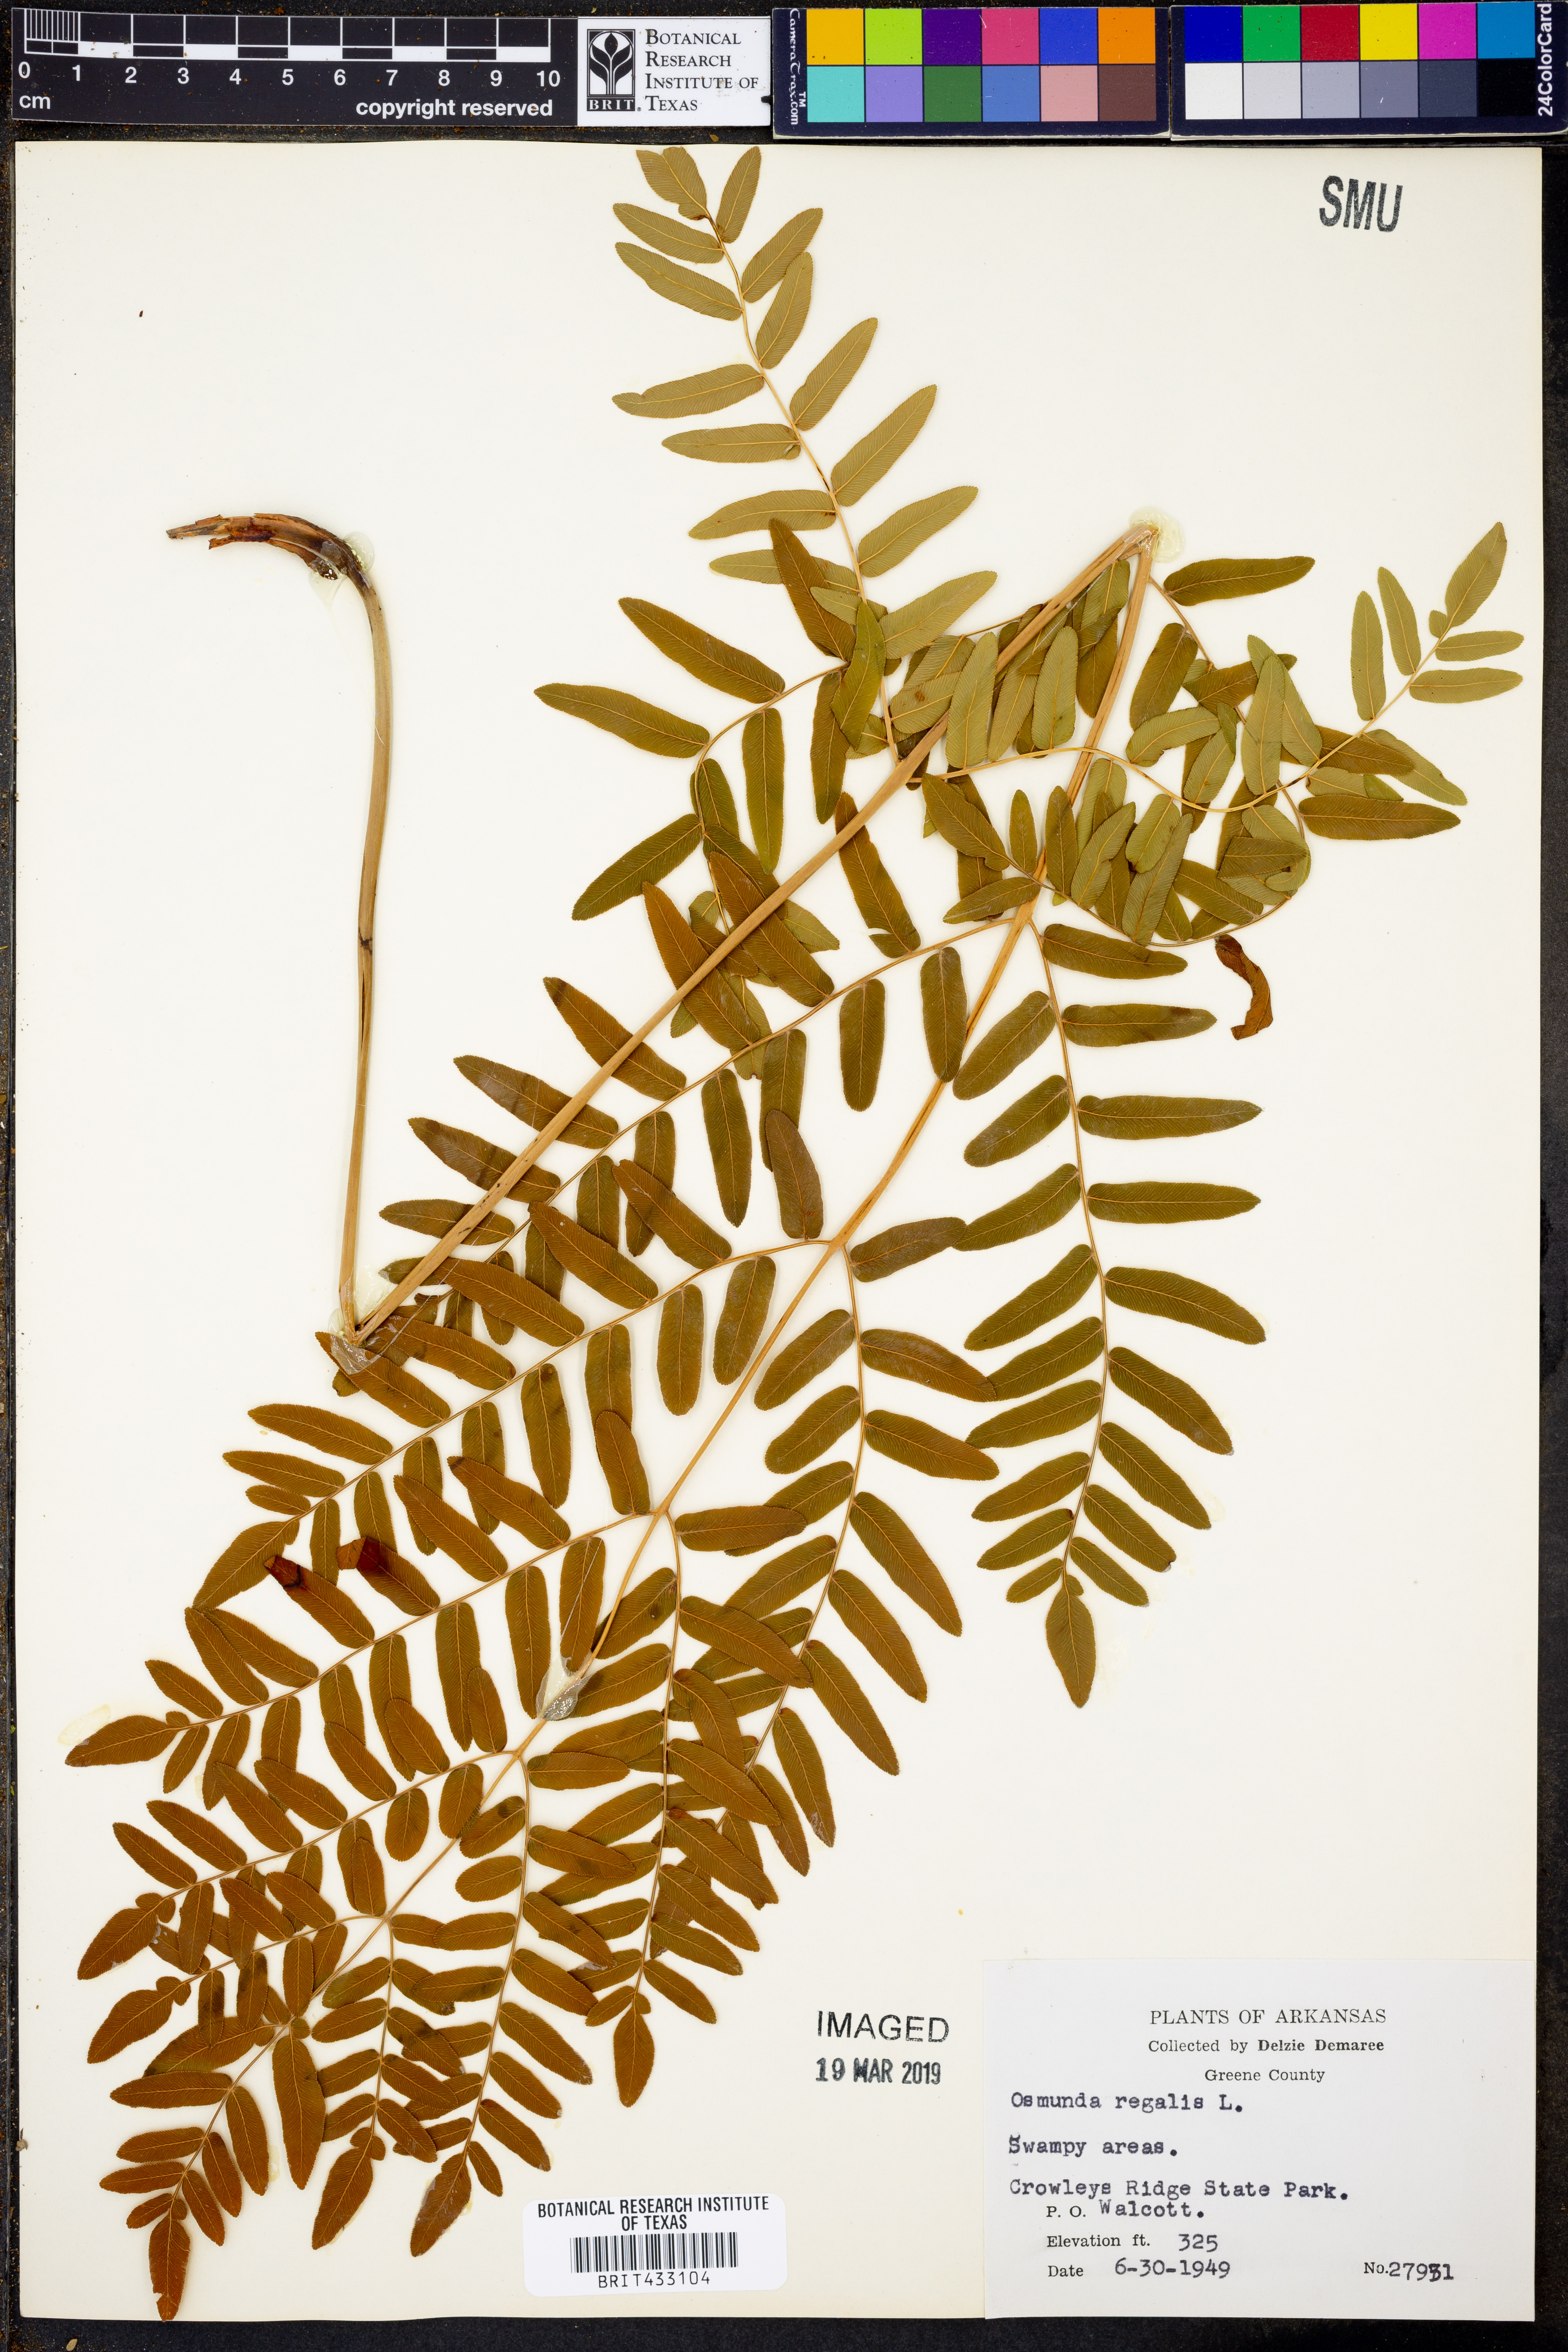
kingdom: Plantae
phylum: Tracheophyta
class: Polypodiopsida
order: Osmundales
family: Osmundaceae
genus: Osmunda
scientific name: Osmunda regalis
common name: Royal fern
